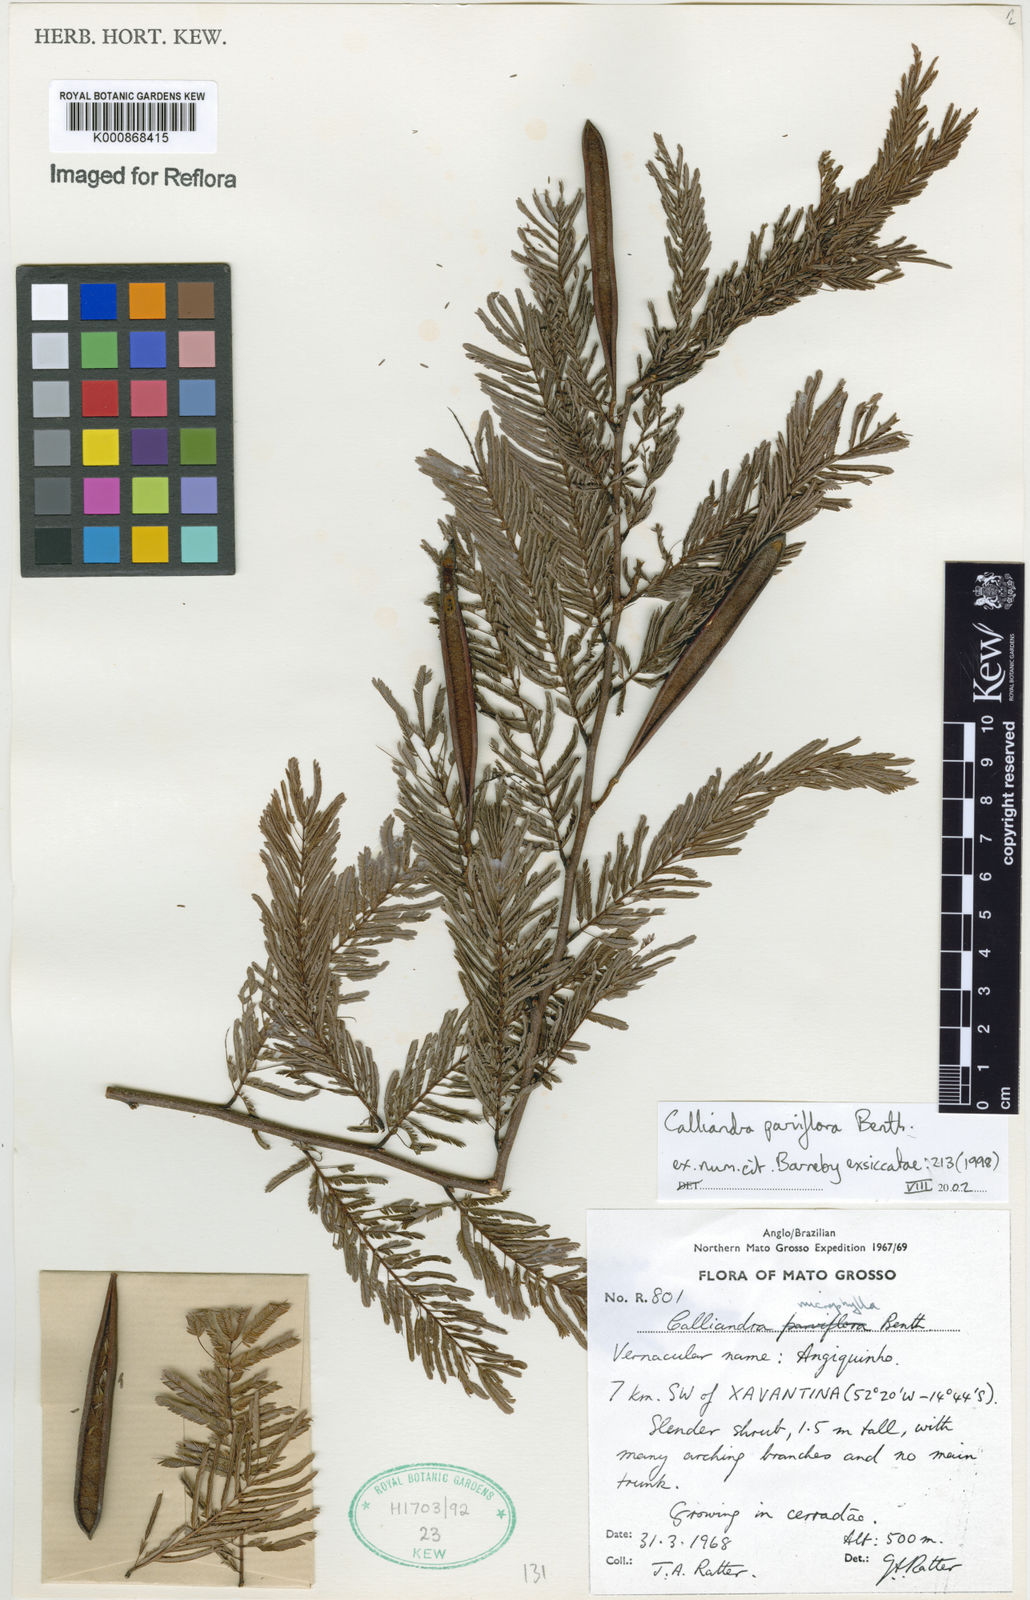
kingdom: Plantae
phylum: Tracheophyta
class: Magnoliopsida
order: Fabales
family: Fabaceae
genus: Calliandra
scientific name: Calliandra parviflora
